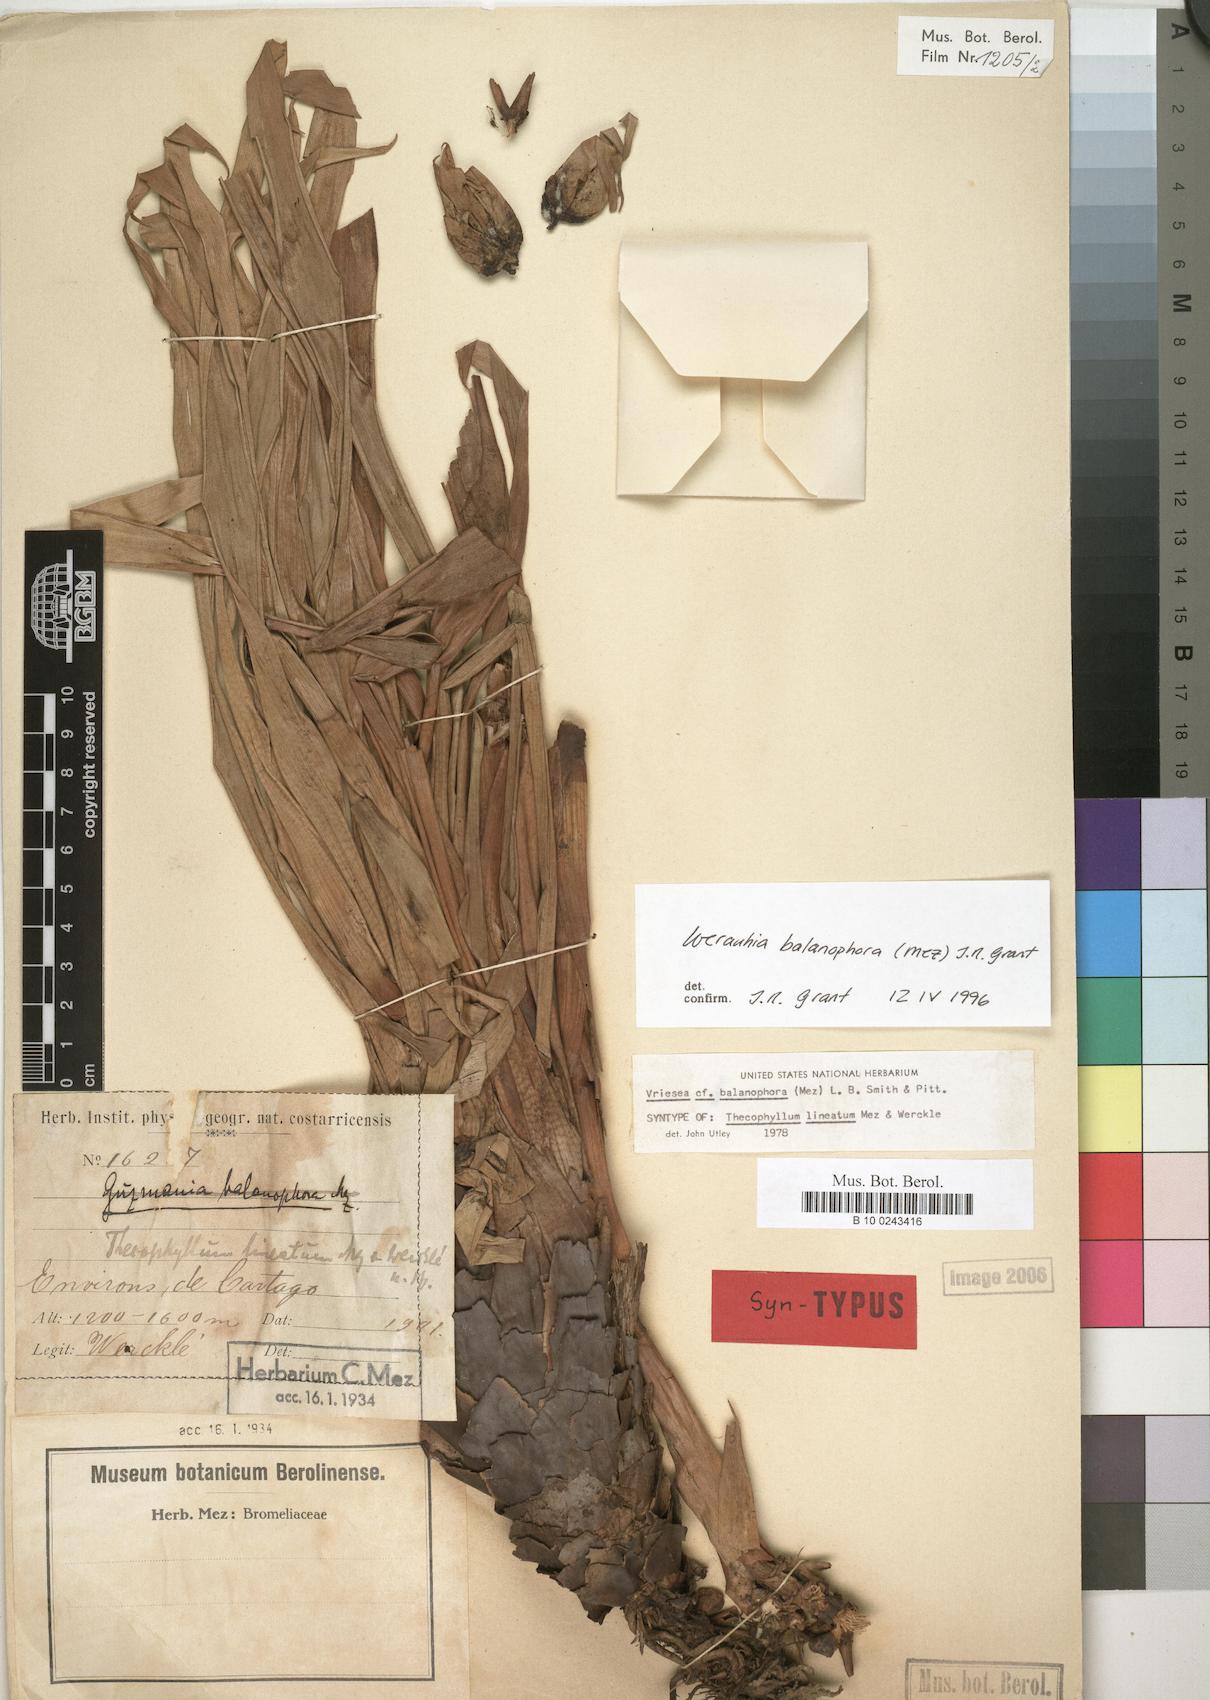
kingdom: Plantae
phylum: Tracheophyta
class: Liliopsida
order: Poales
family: Bromeliaceae
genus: Werauhia
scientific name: Werauhia balanophora
